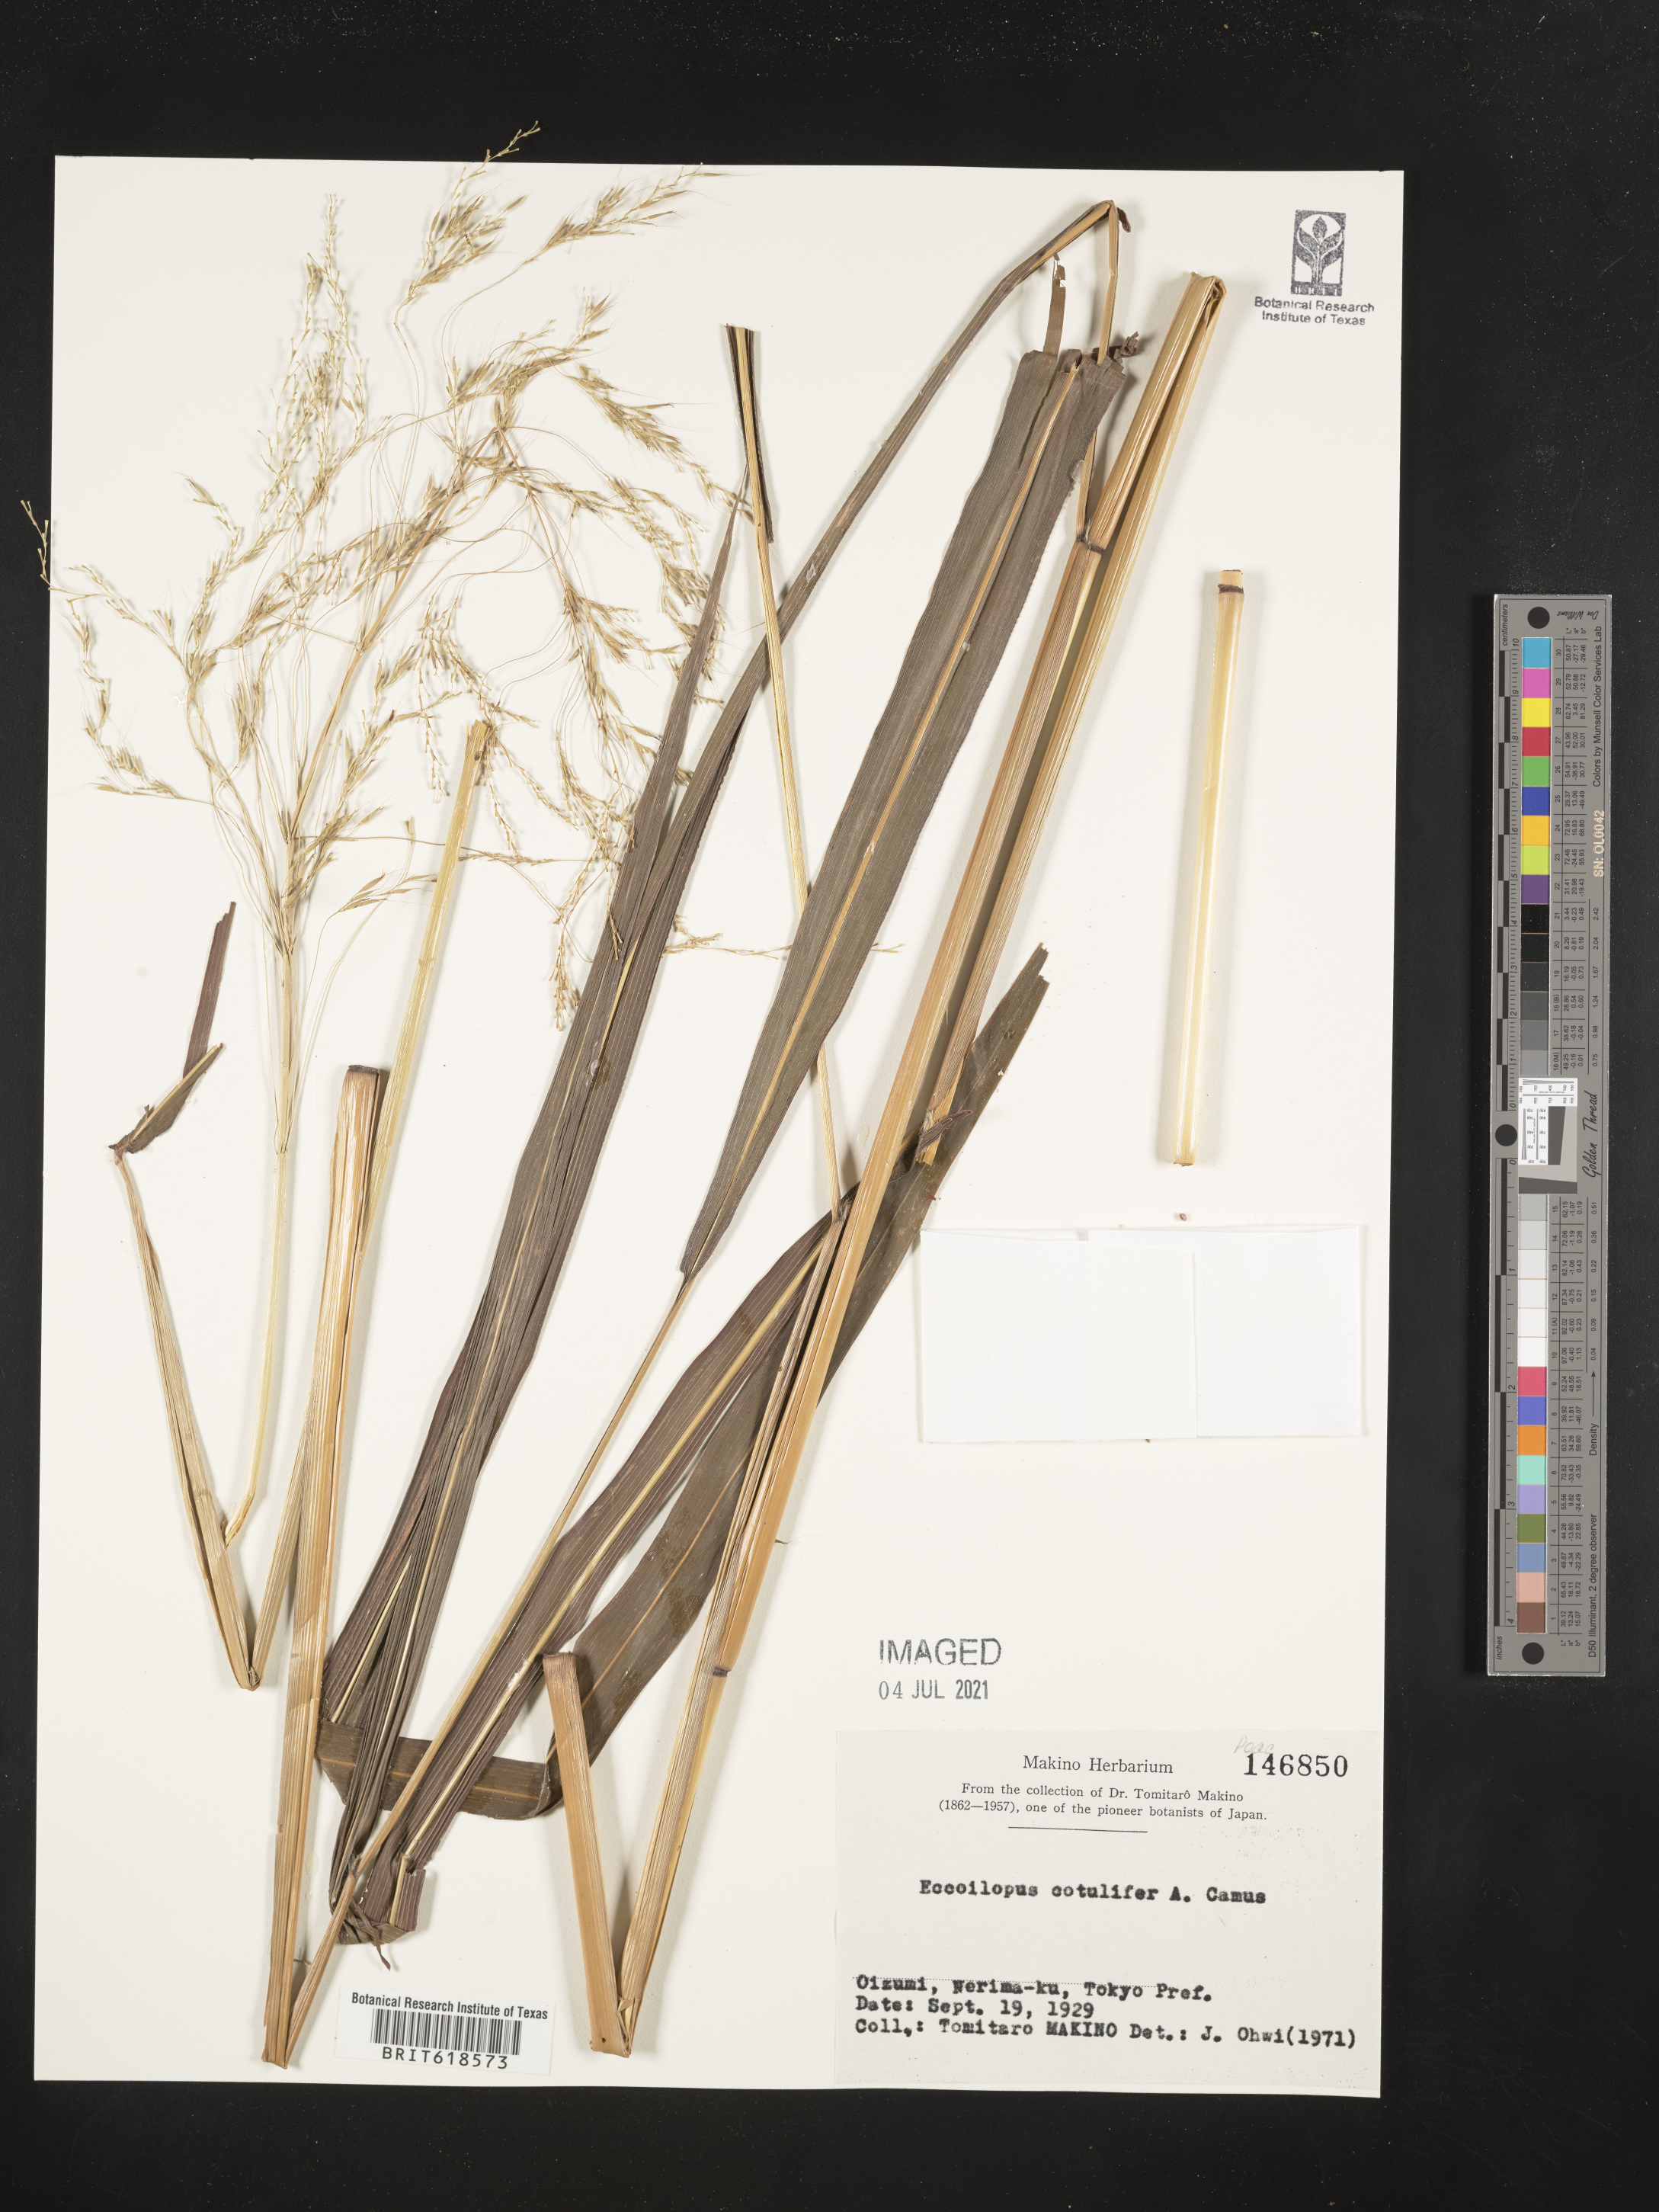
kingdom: Plantae
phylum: Tracheophyta
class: Liliopsida
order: Poales
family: Poaceae
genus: Spodiopogon
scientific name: Spodiopogon cotulifer
